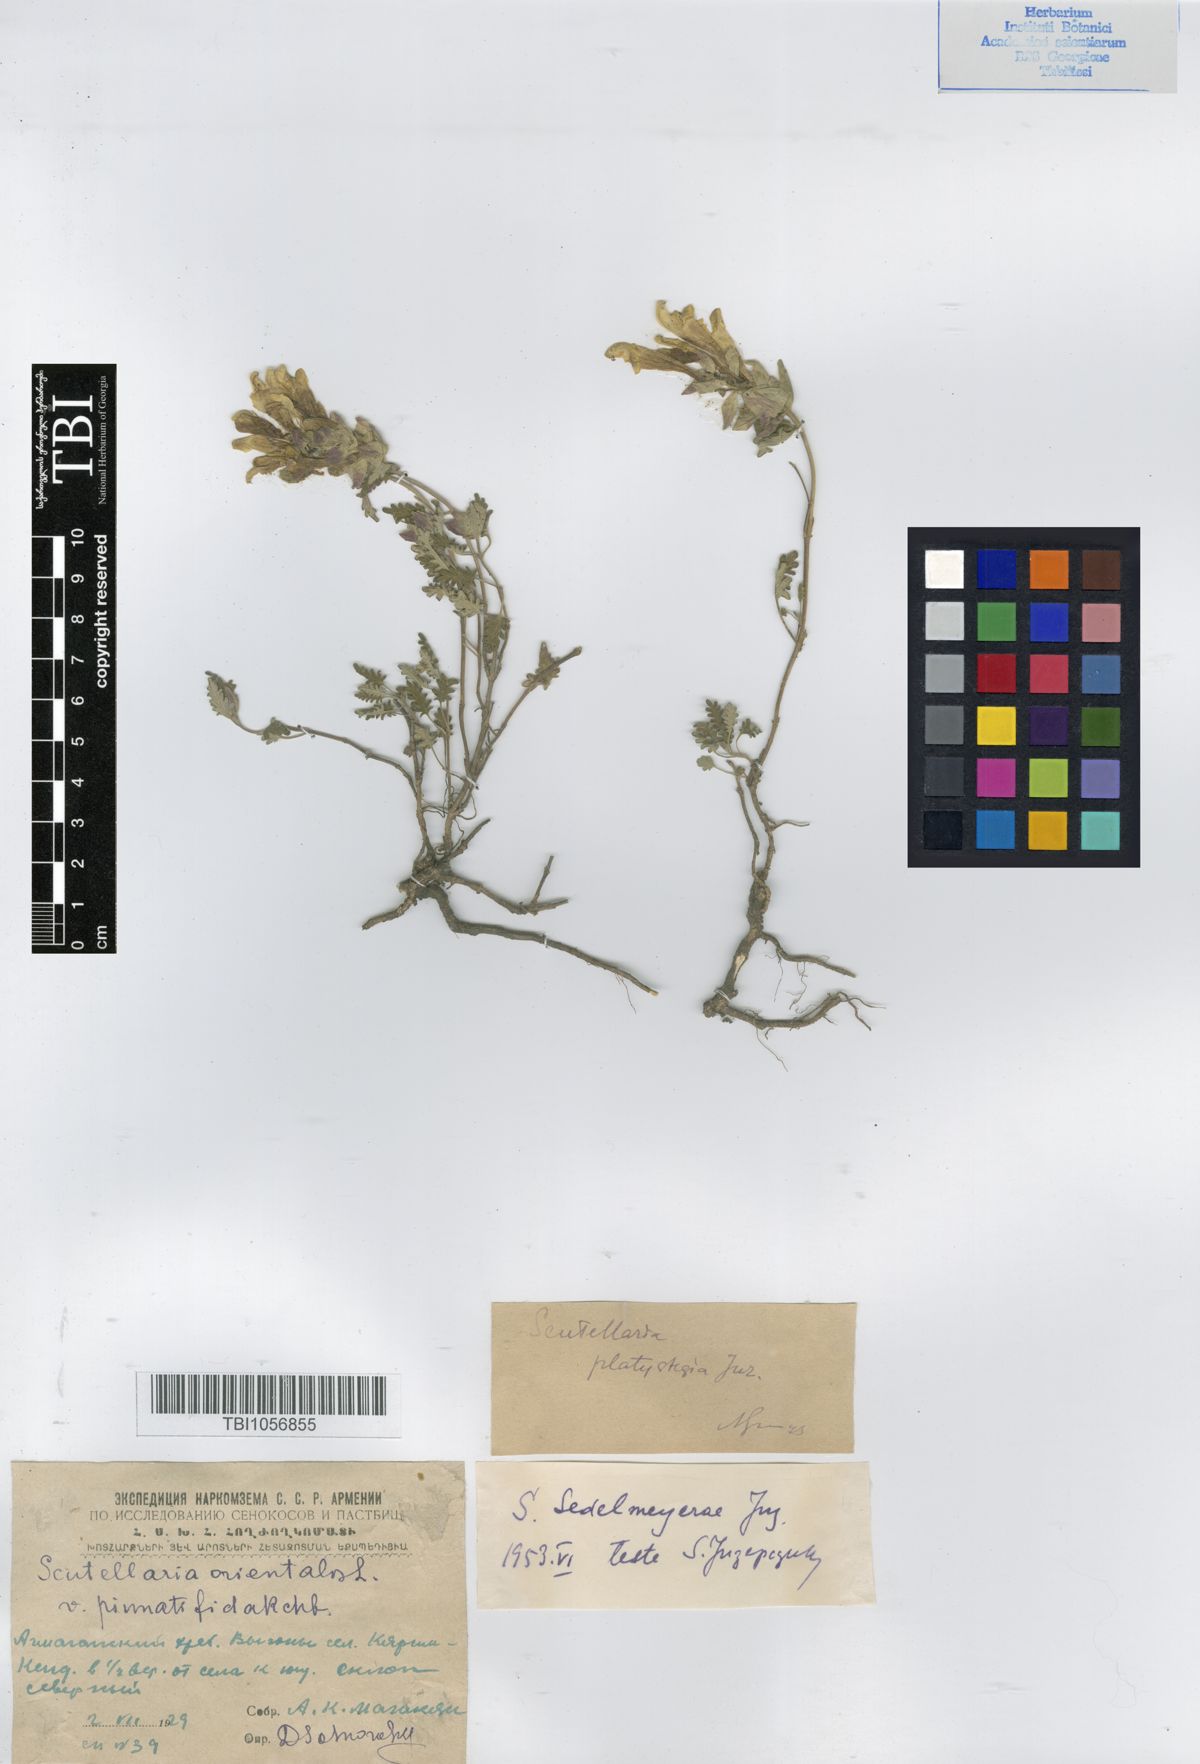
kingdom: Plantae
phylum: Tracheophyta
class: Magnoliopsida
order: Lamiales
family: Lamiaceae
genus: Scutellaria
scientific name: Scutellaria sedelmeyerae
